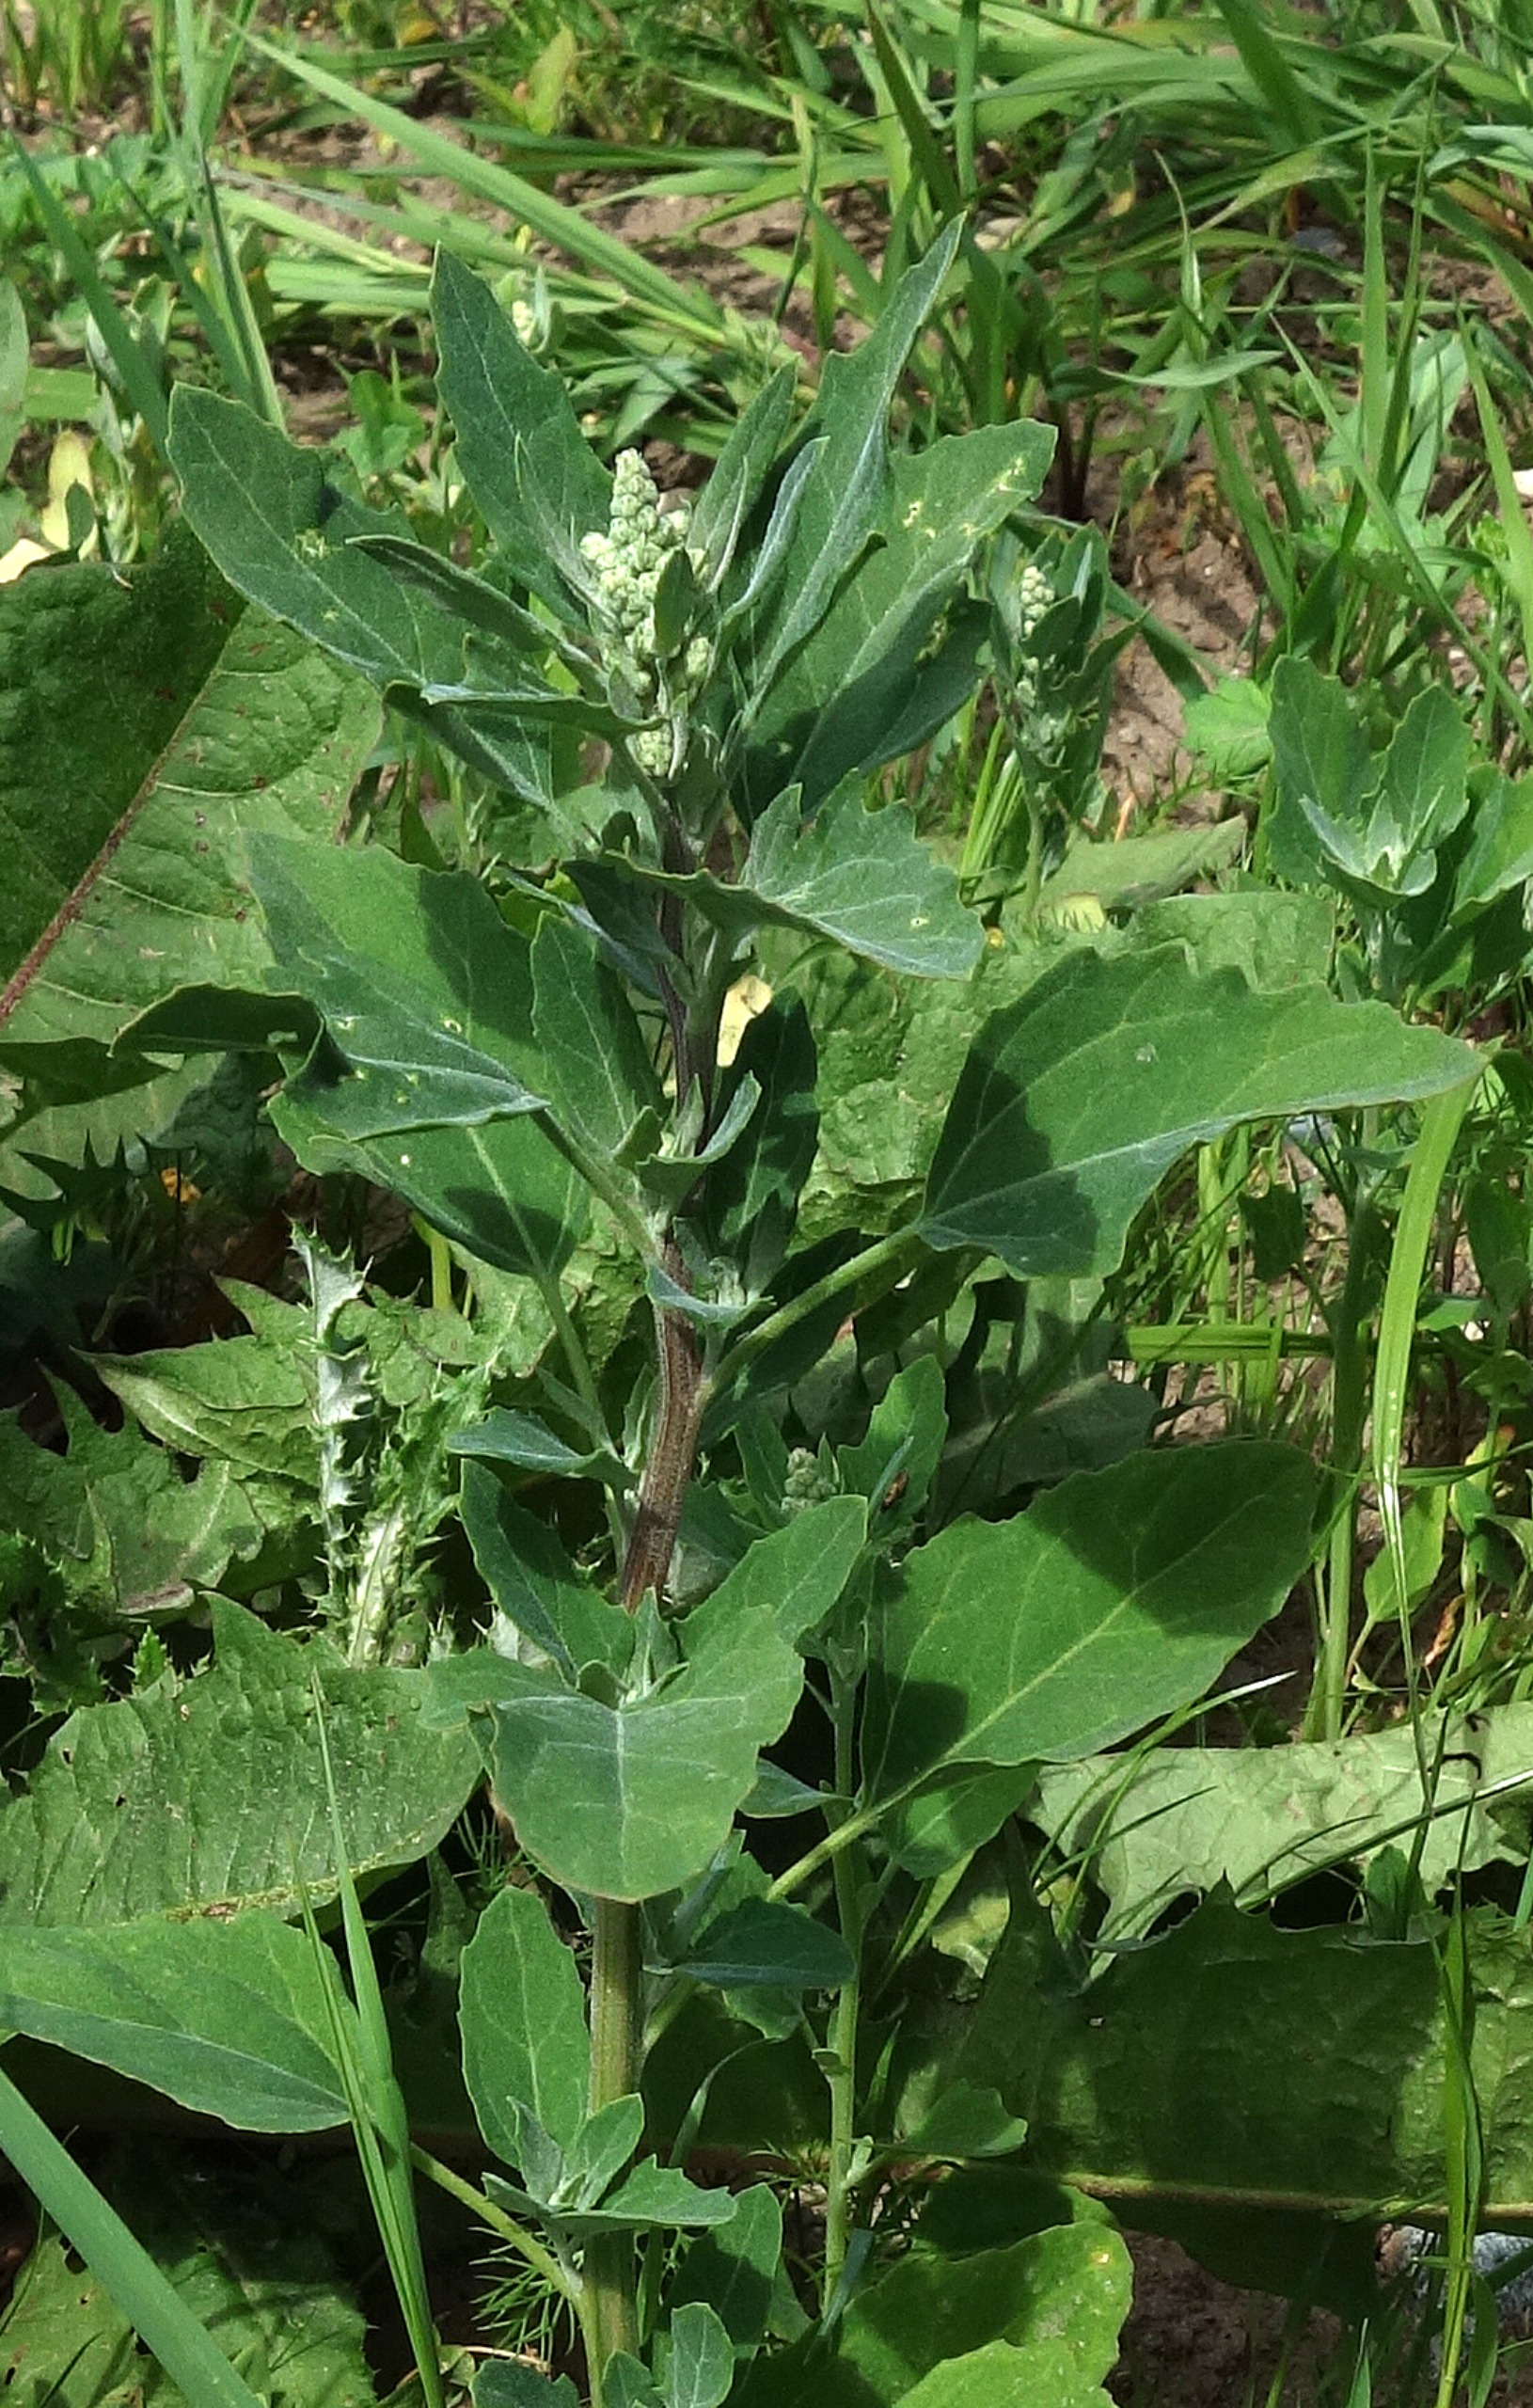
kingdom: Plantae
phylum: Tracheophyta
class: Magnoliopsida
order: Caryophyllales
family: Amaranthaceae
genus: Chenopodium
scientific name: Chenopodium album
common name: Hvidmelet gåsefod
